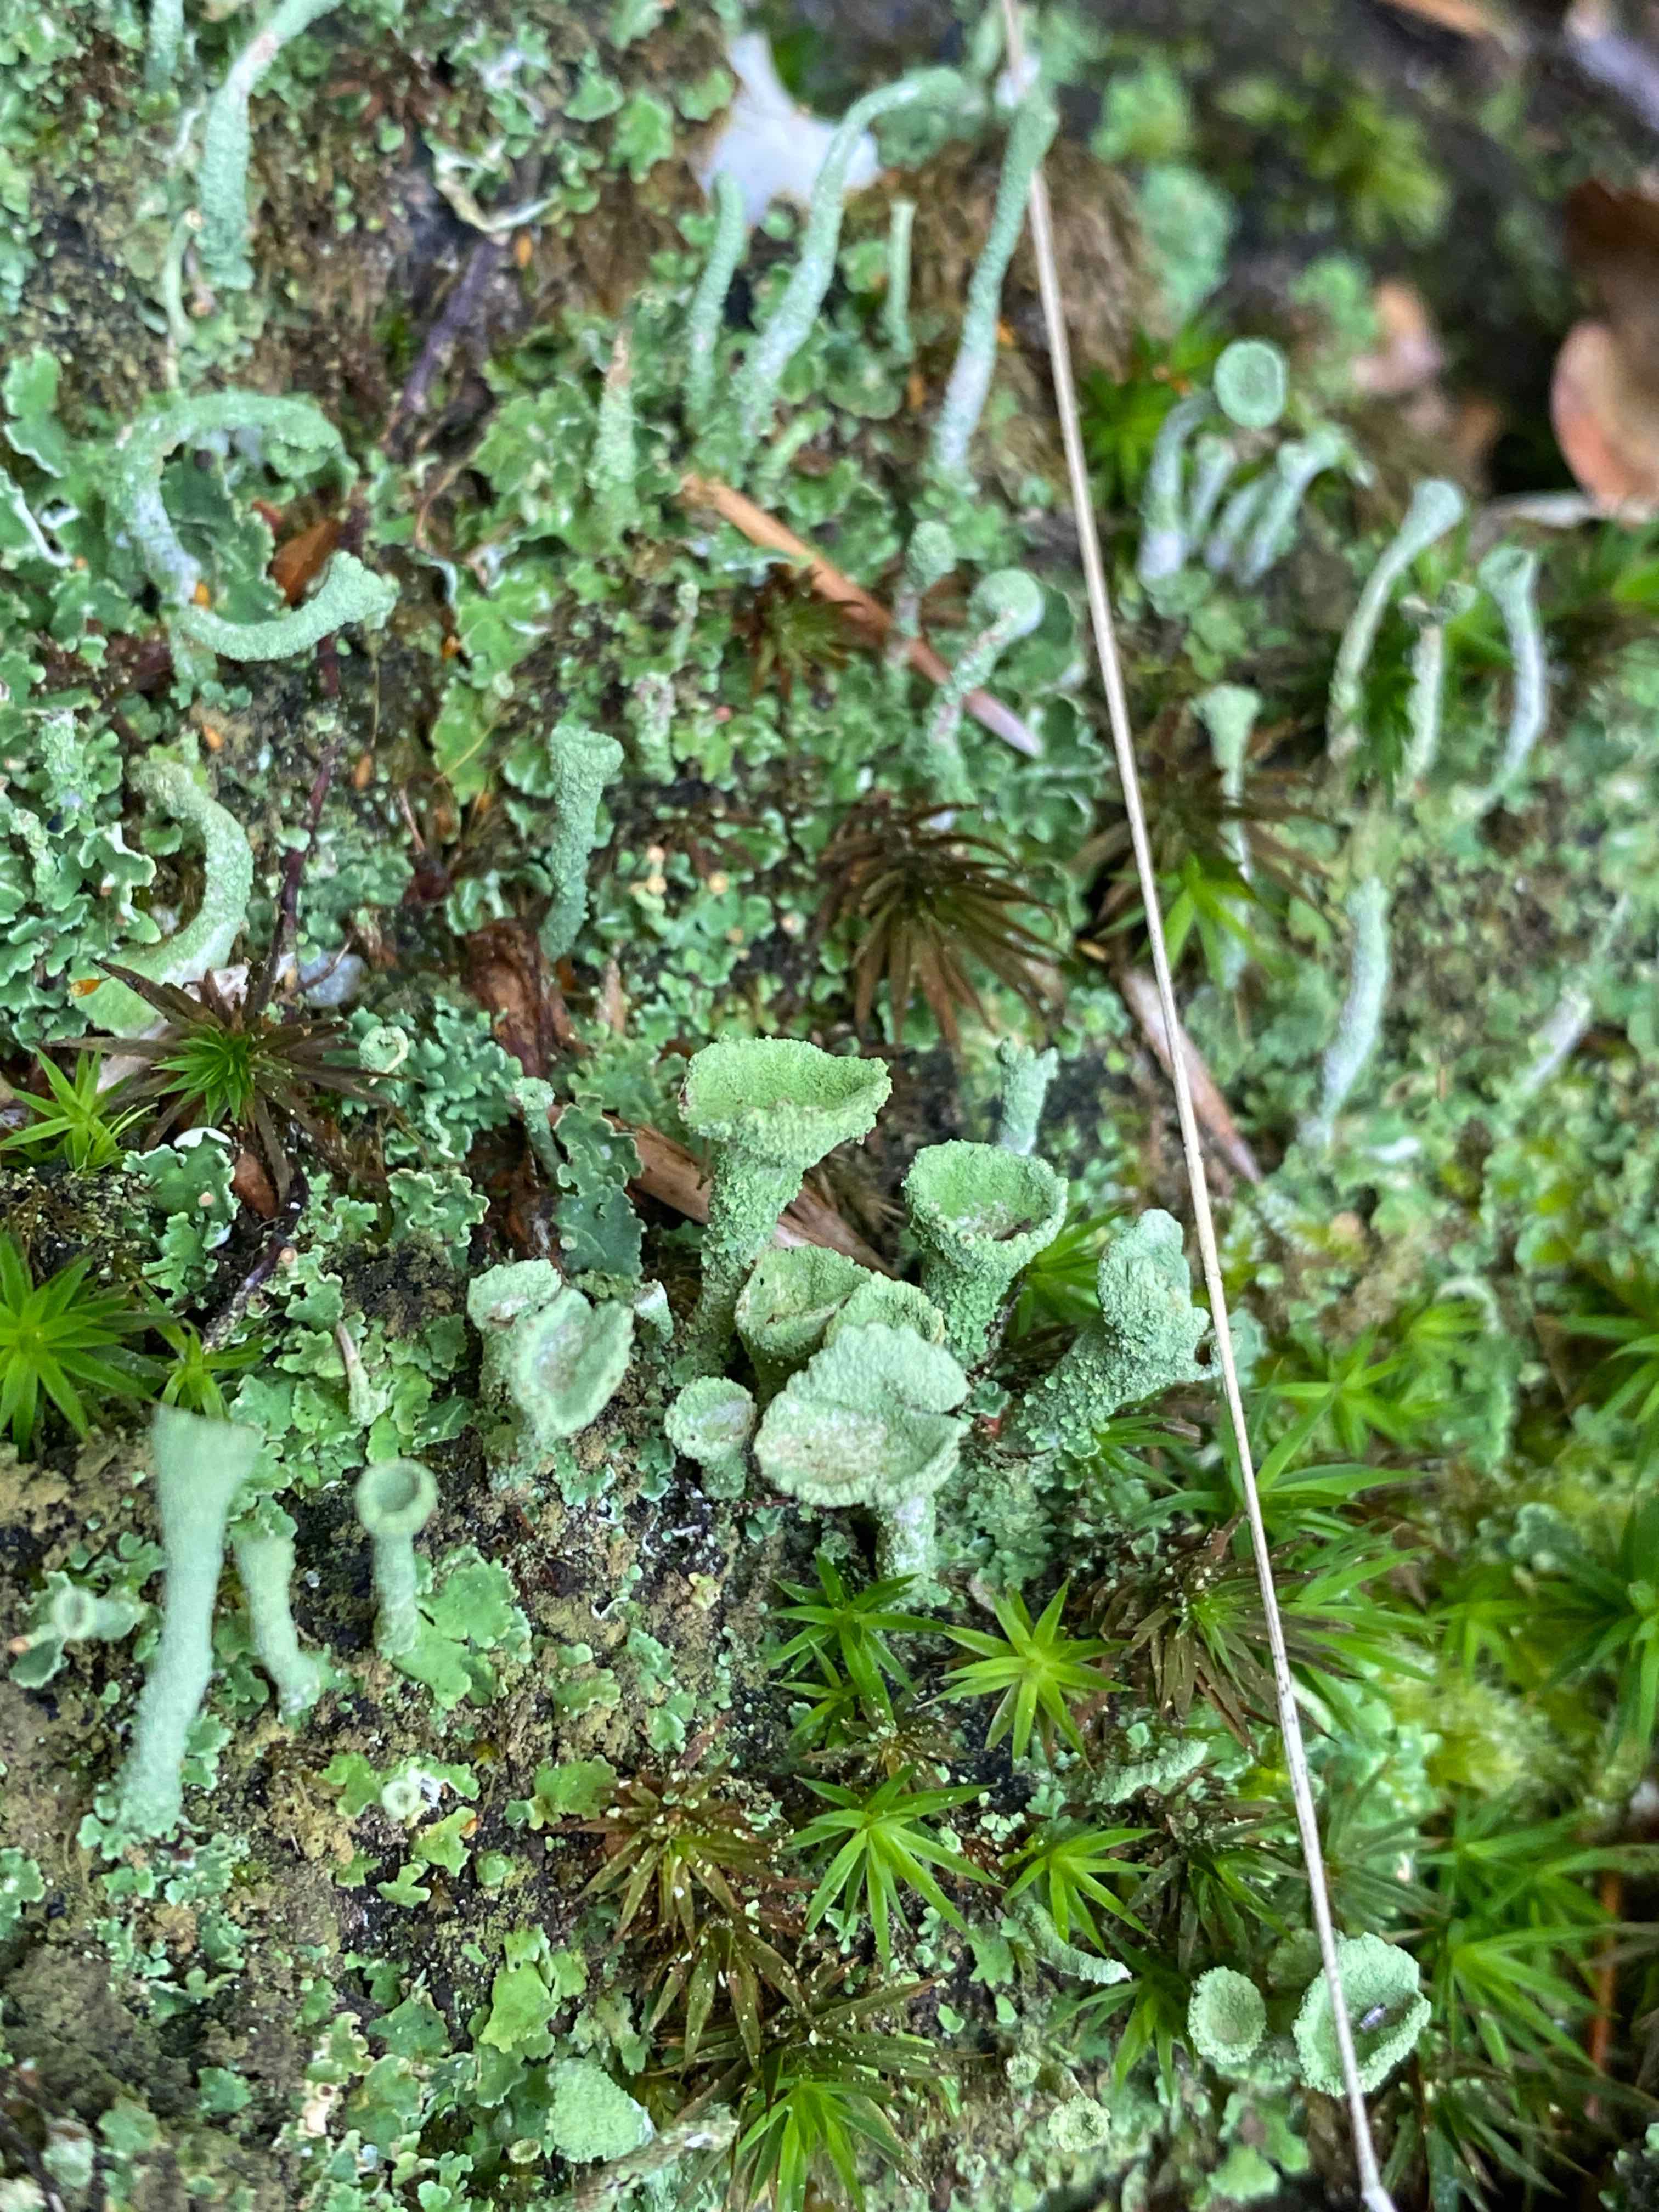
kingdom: Fungi
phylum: Ascomycota
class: Lecanoromycetes
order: Lecanorales
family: Cladoniaceae
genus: Cladonia
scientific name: Cladonia
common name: brungrøn bægerlav
